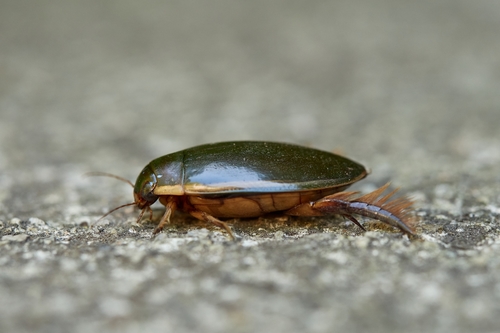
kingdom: Animalia
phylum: Arthropoda
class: Insecta
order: Coleoptera
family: Dytiscidae
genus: Cybister
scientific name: Cybister lateralimarginalis
